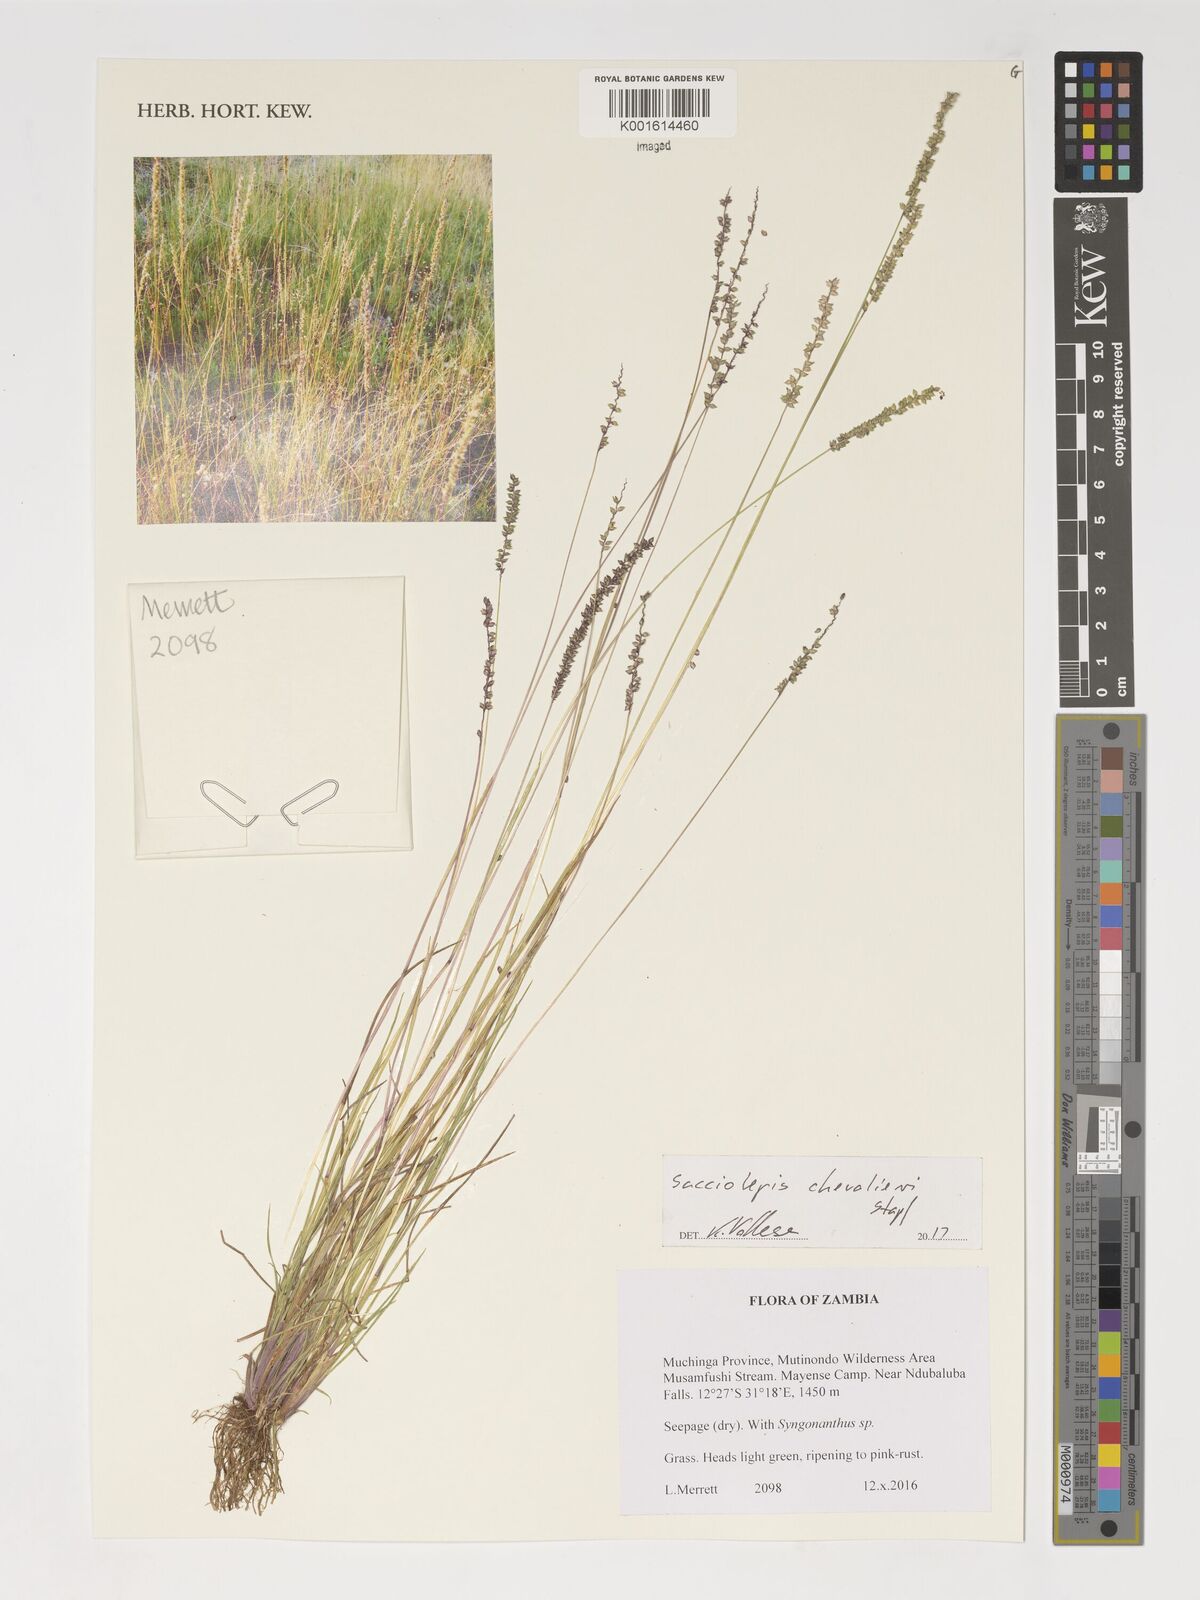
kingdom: Plantae
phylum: Tracheophyta
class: Liliopsida
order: Poales
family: Poaceae
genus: Sacciolepis
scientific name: Sacciolepis chevalieri
